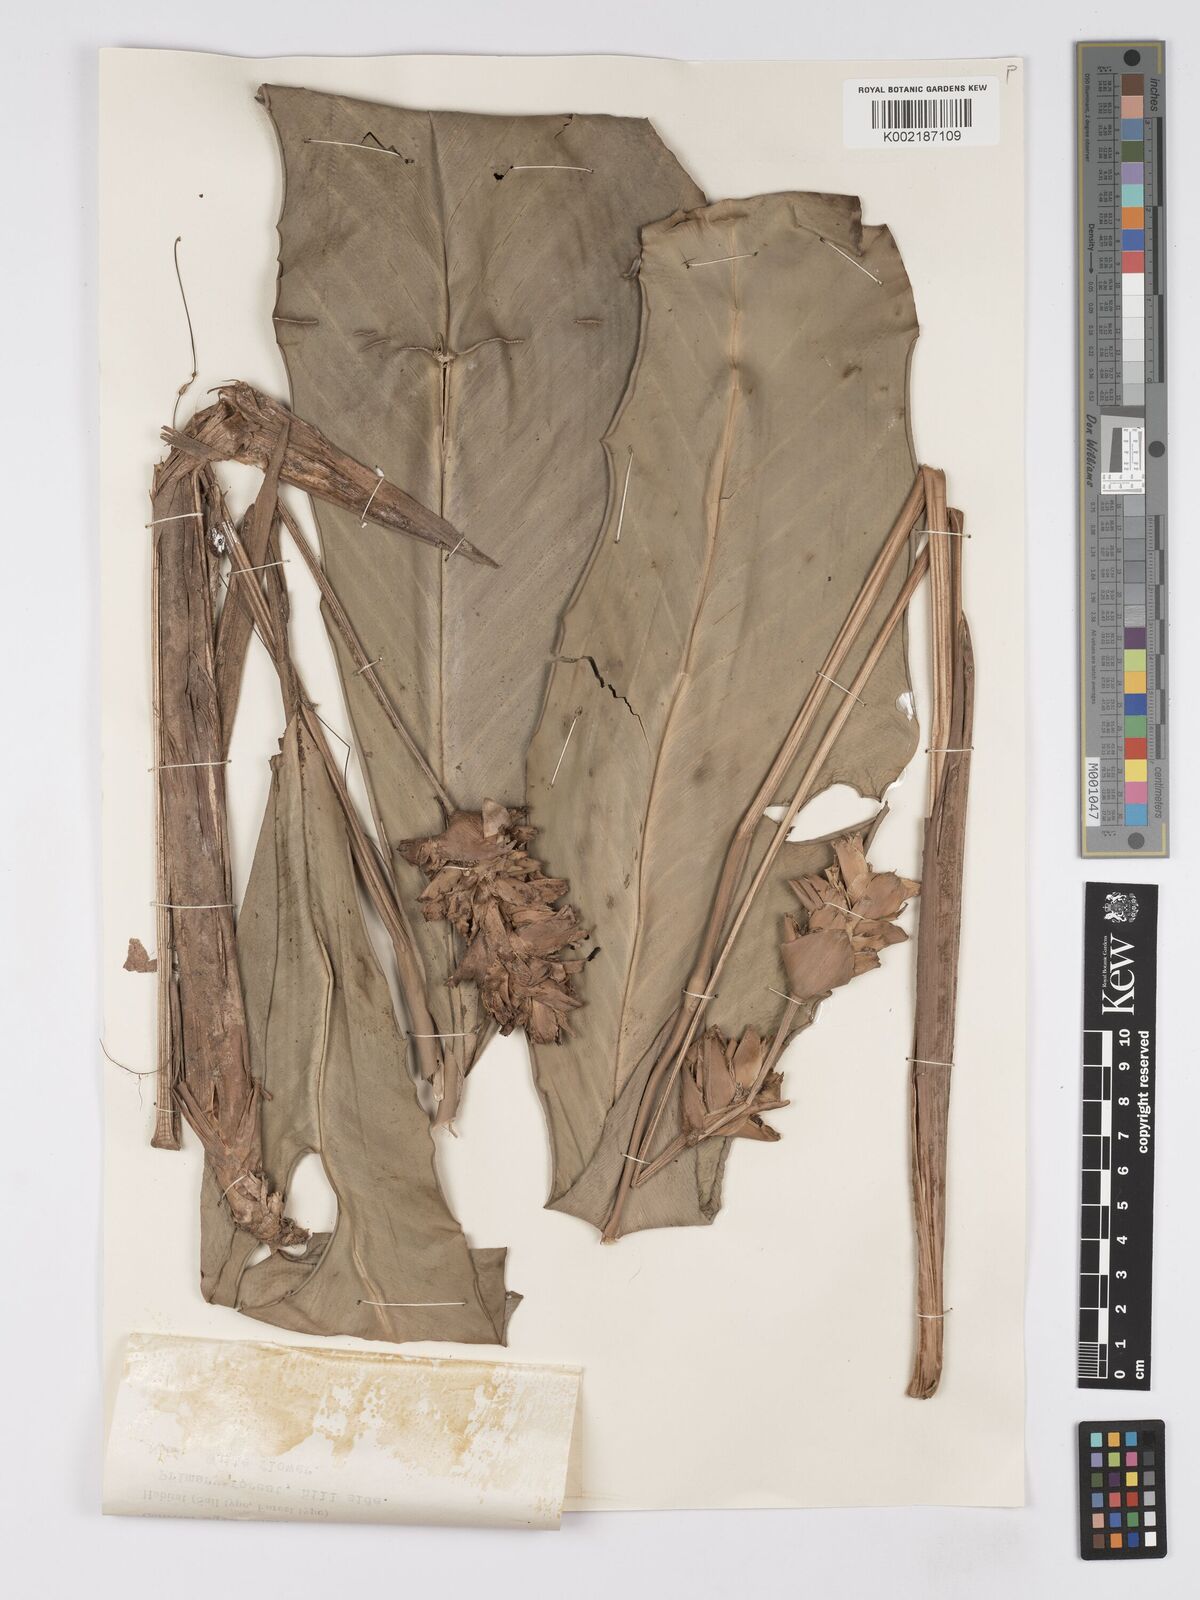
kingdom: Plantae
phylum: Tracheophyta
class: Liliopsida
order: Zingiberales
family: Marantaceae
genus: Phrynium
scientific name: Phrynium maximum
